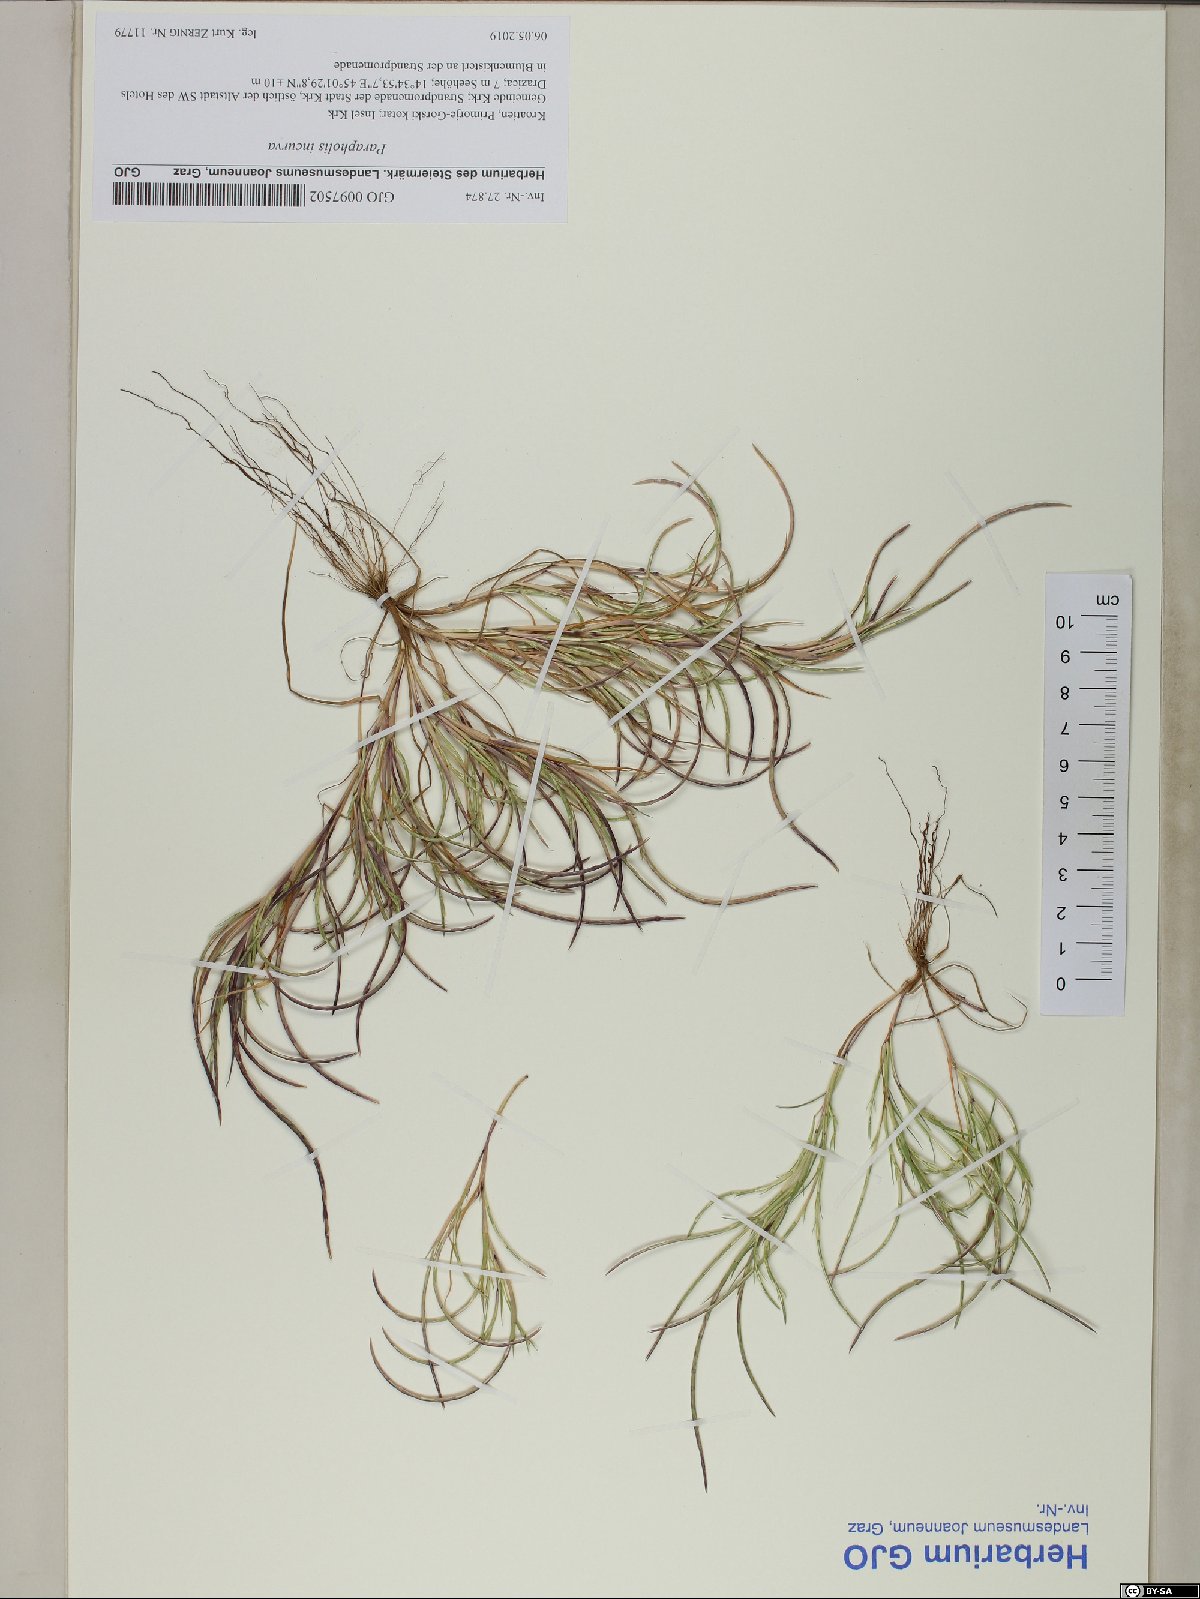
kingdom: Plantae
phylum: Tracheophyta
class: Liliopsida
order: Poales
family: Poaceae
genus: Parapholis
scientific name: Parapholis incurva
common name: Curved sicklegrass
